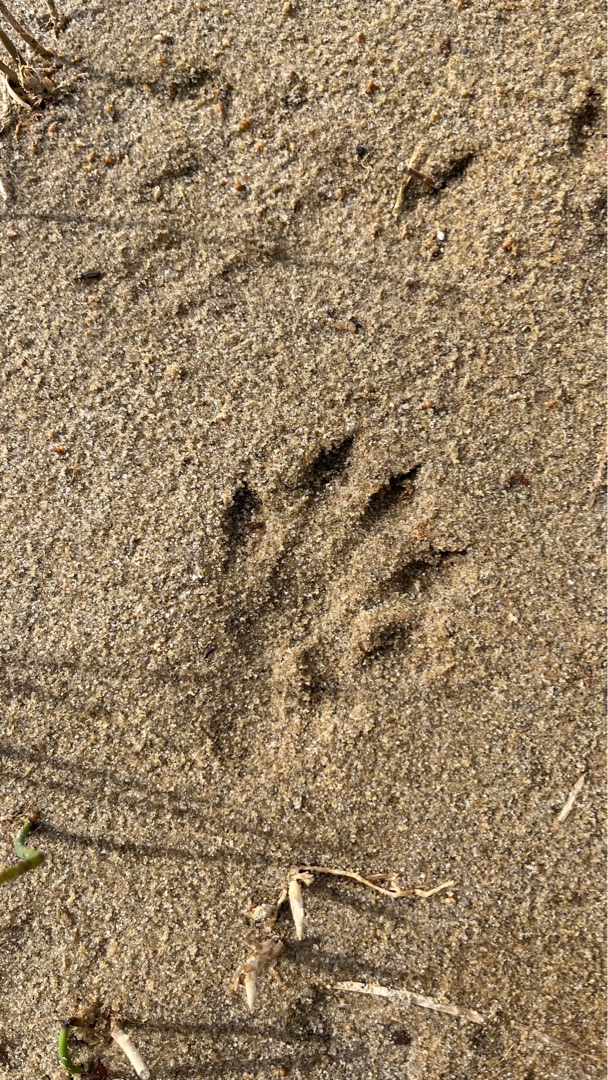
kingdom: Animalia
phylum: Chordata
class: Mammalia
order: Carnivora
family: Mustelidae
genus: Lutra
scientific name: Lutra lutra
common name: Odder
